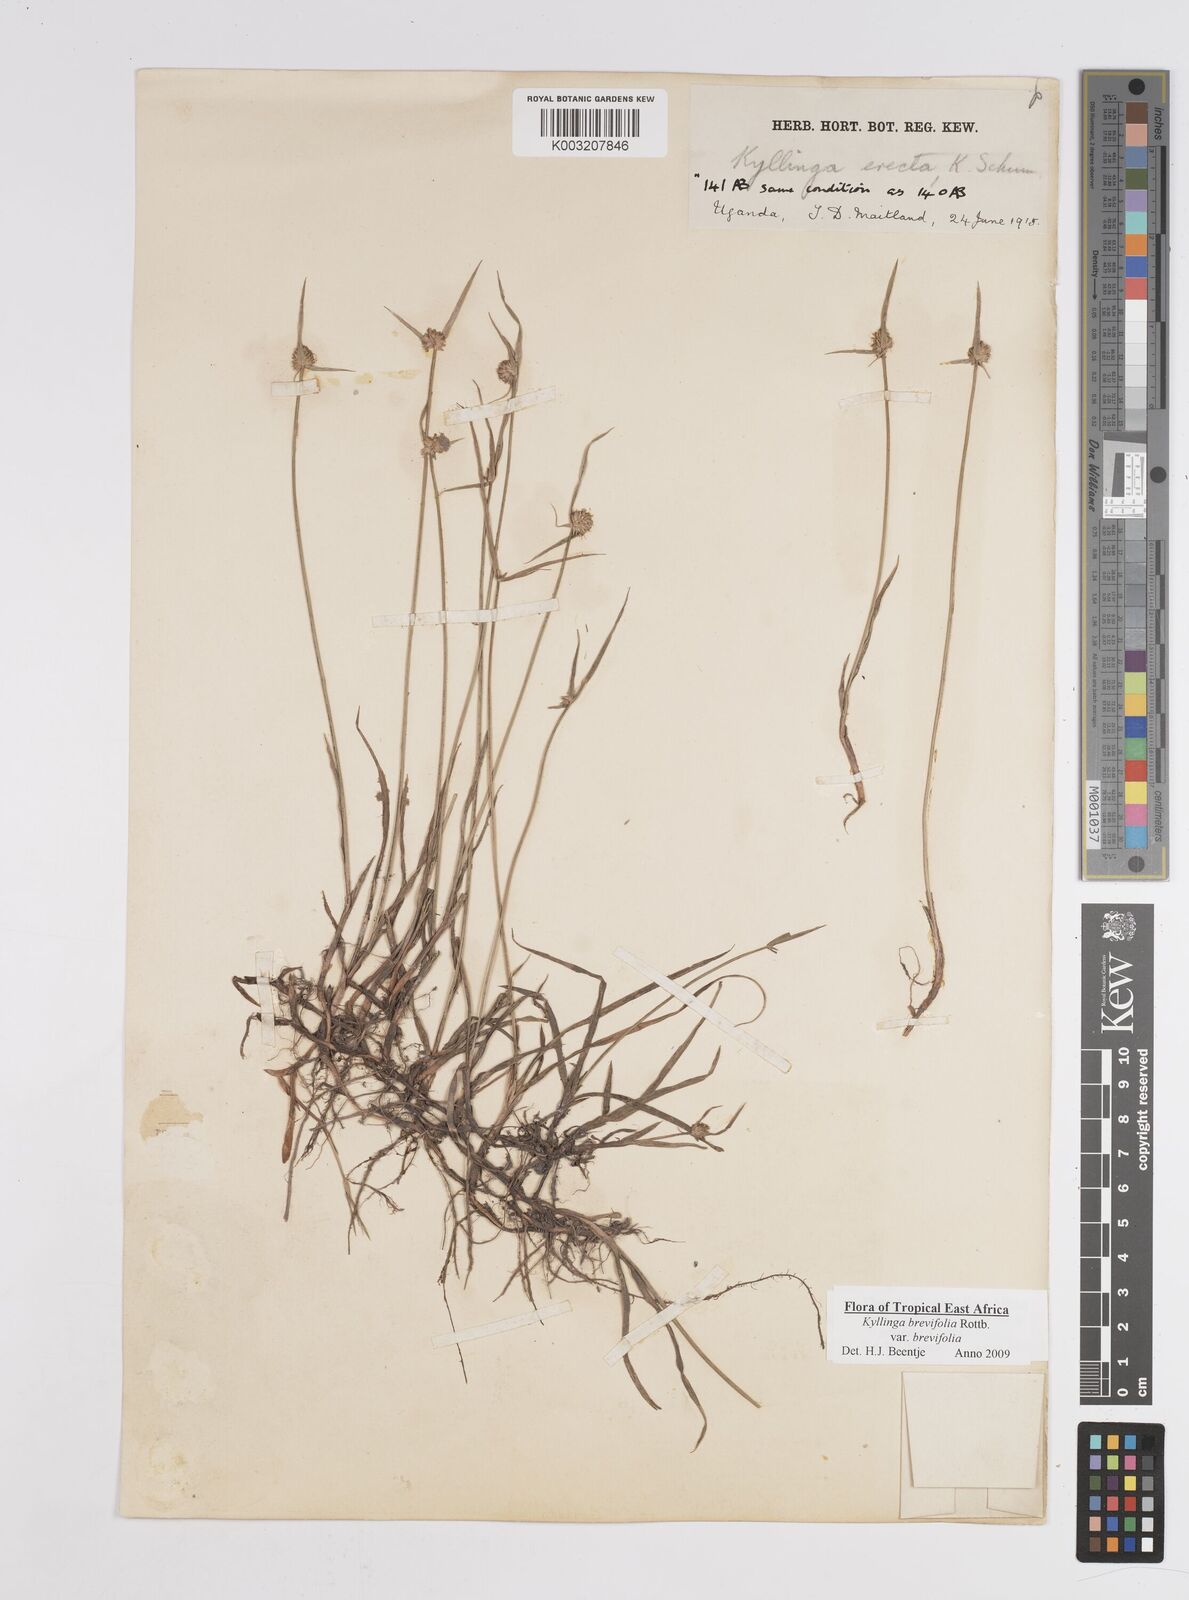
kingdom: Plantae
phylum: Tracheophyta
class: Liliopsida
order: Poales
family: Cyperaceae
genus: Cyperus
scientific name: Cyperus erectus
